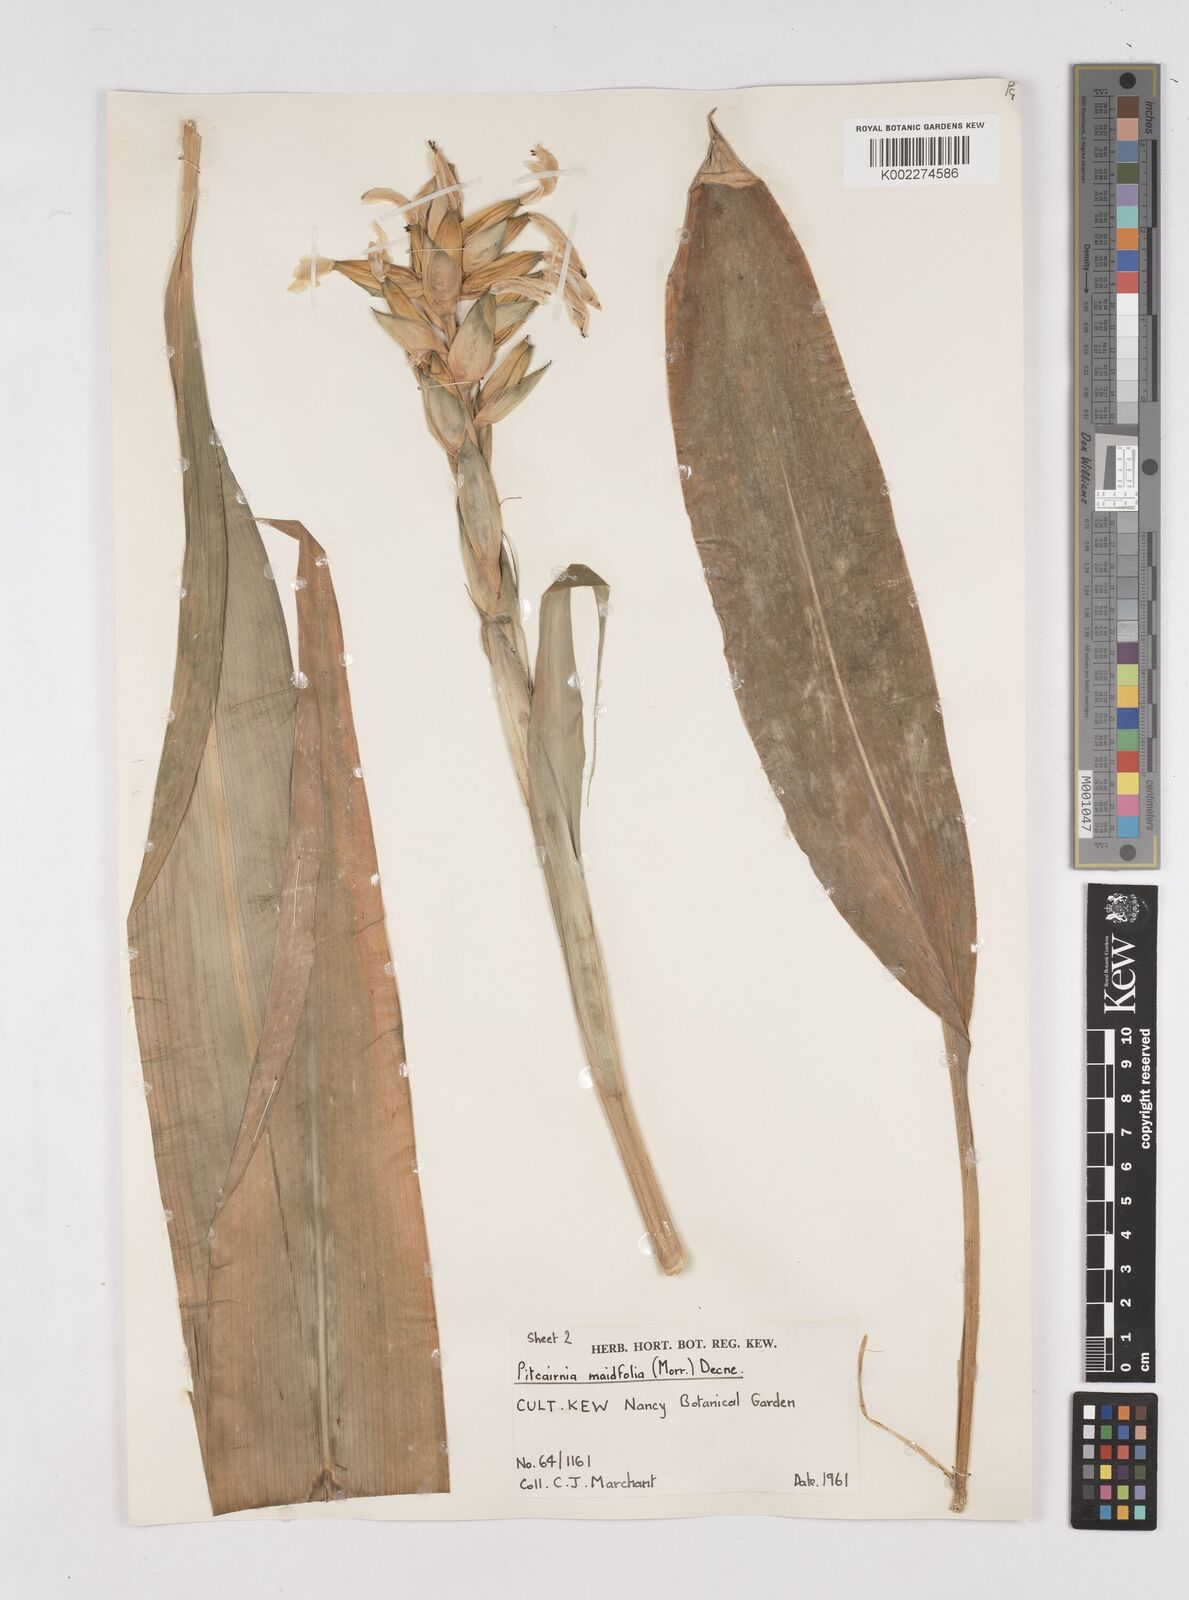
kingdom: Plantae
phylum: Tracheophyta
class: Liliopsida
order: Poales
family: Bromeliaceae
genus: Pitcairnia
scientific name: Pitcairnia maidifolia
